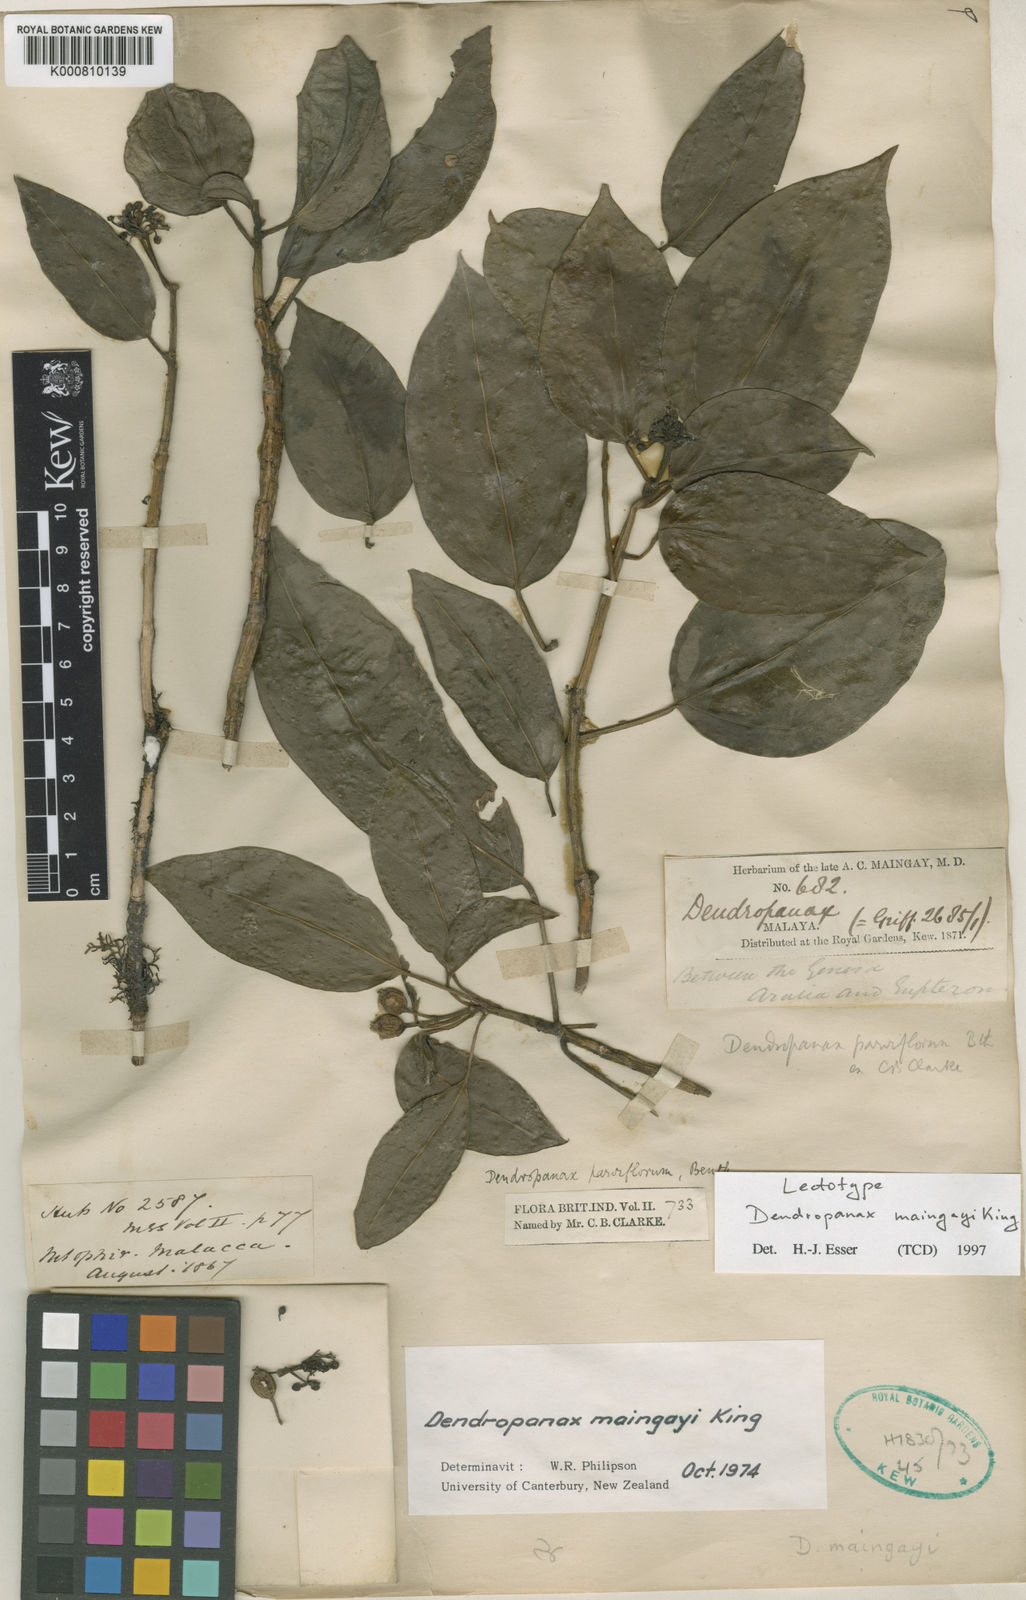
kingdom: Plantae
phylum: Tracheophyta
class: Magnoliopsida
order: Apiales
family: Araliaceae
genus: Dendropanax
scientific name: Dendropanax maingayi
